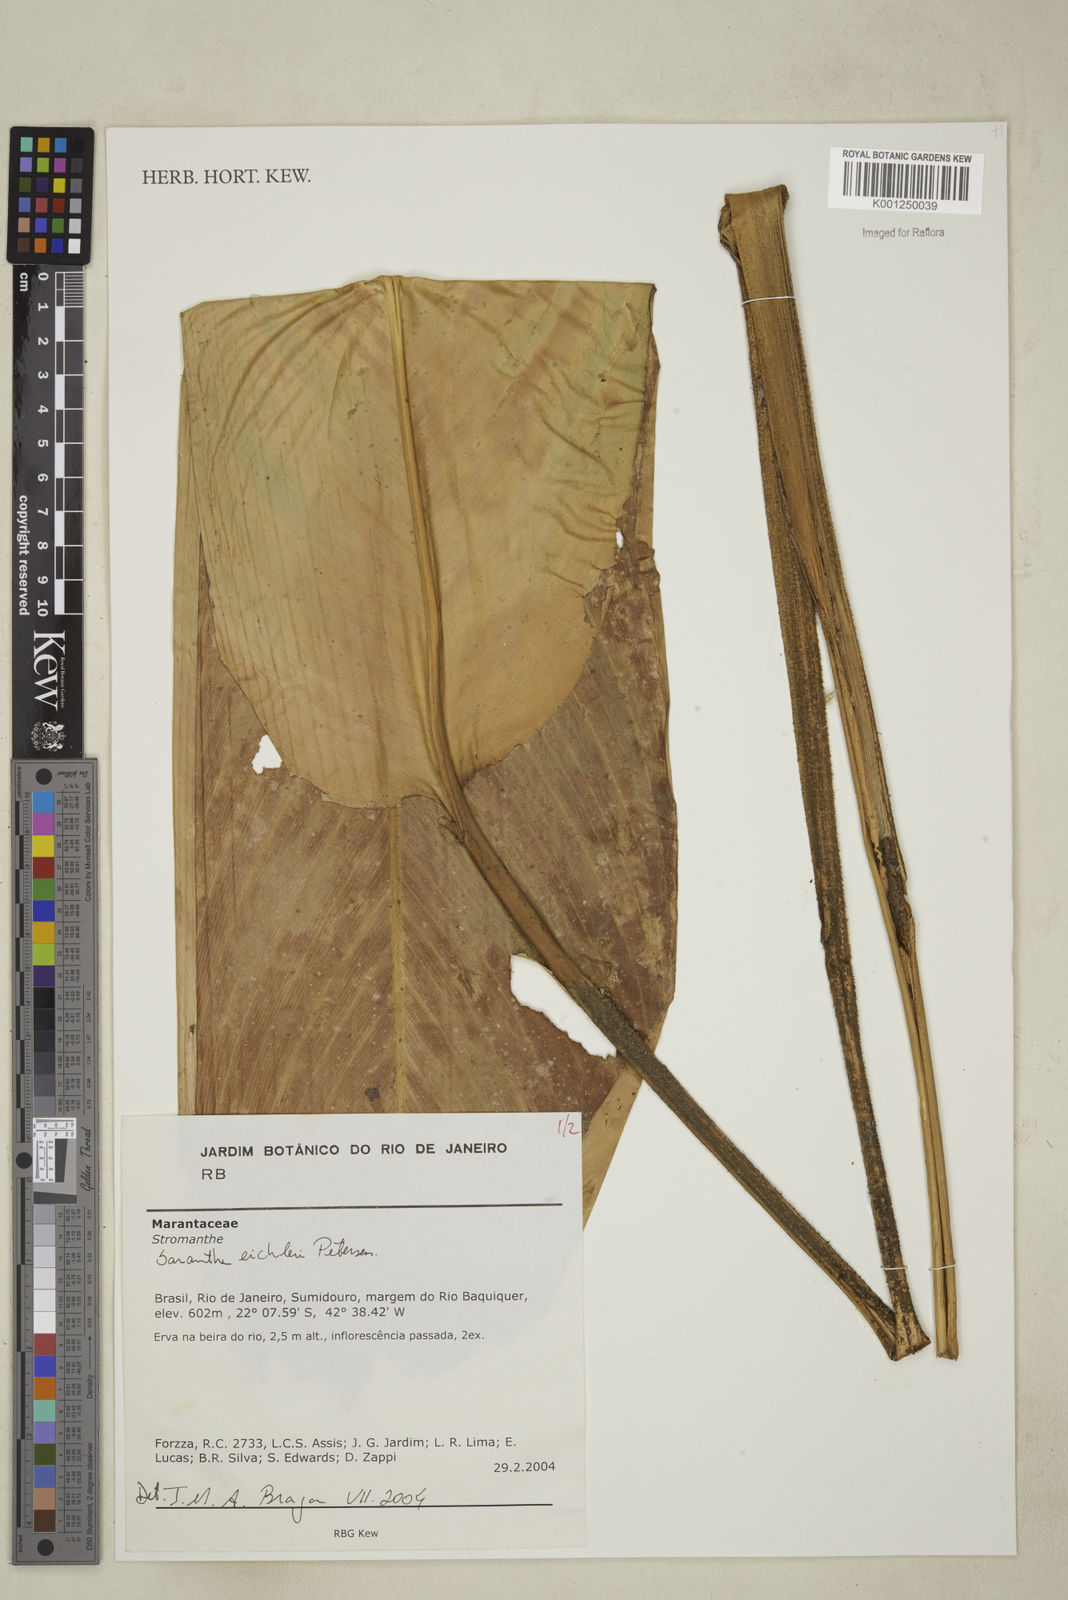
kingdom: Plantae
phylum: Tracheophyta
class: Liliopsida
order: Zingiberales
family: Marantaceae
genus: Saranthe
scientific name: Saranthe eichleri
